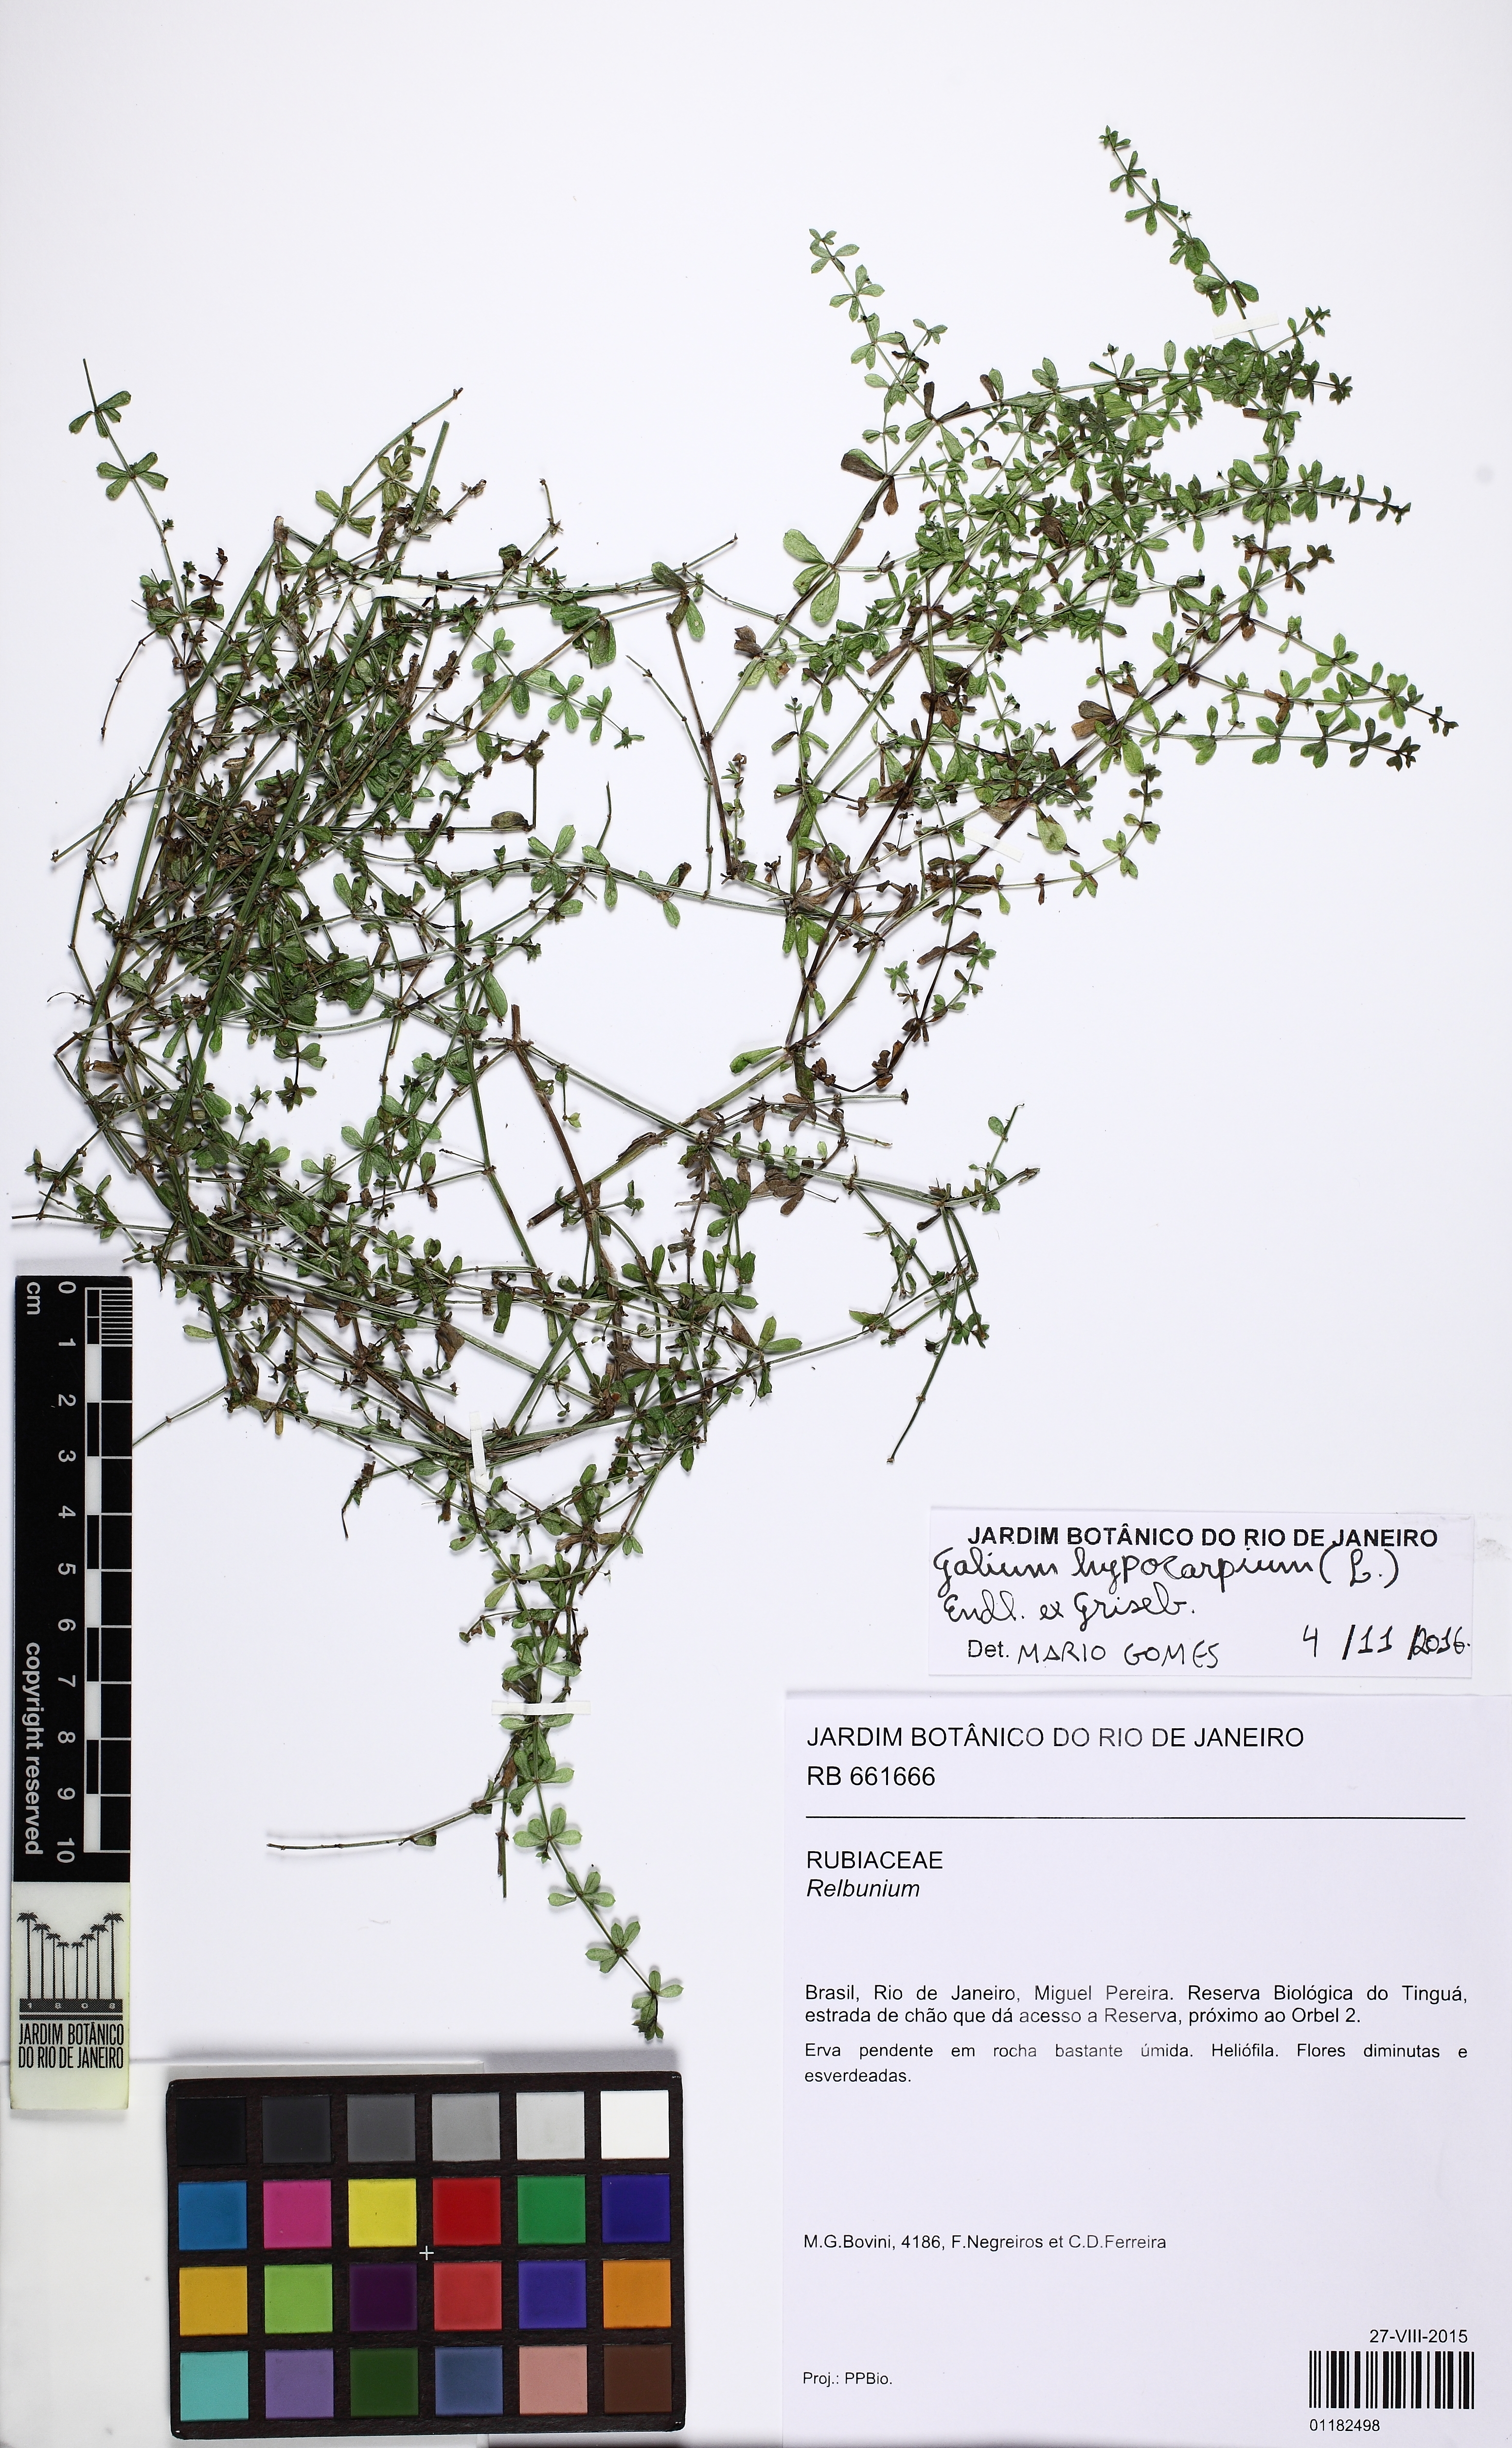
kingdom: Plantae
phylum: Tracheophyta
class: Magnoliopsida
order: Gentianales
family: Rubiaceae
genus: Galium
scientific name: Galium hypocarpium
